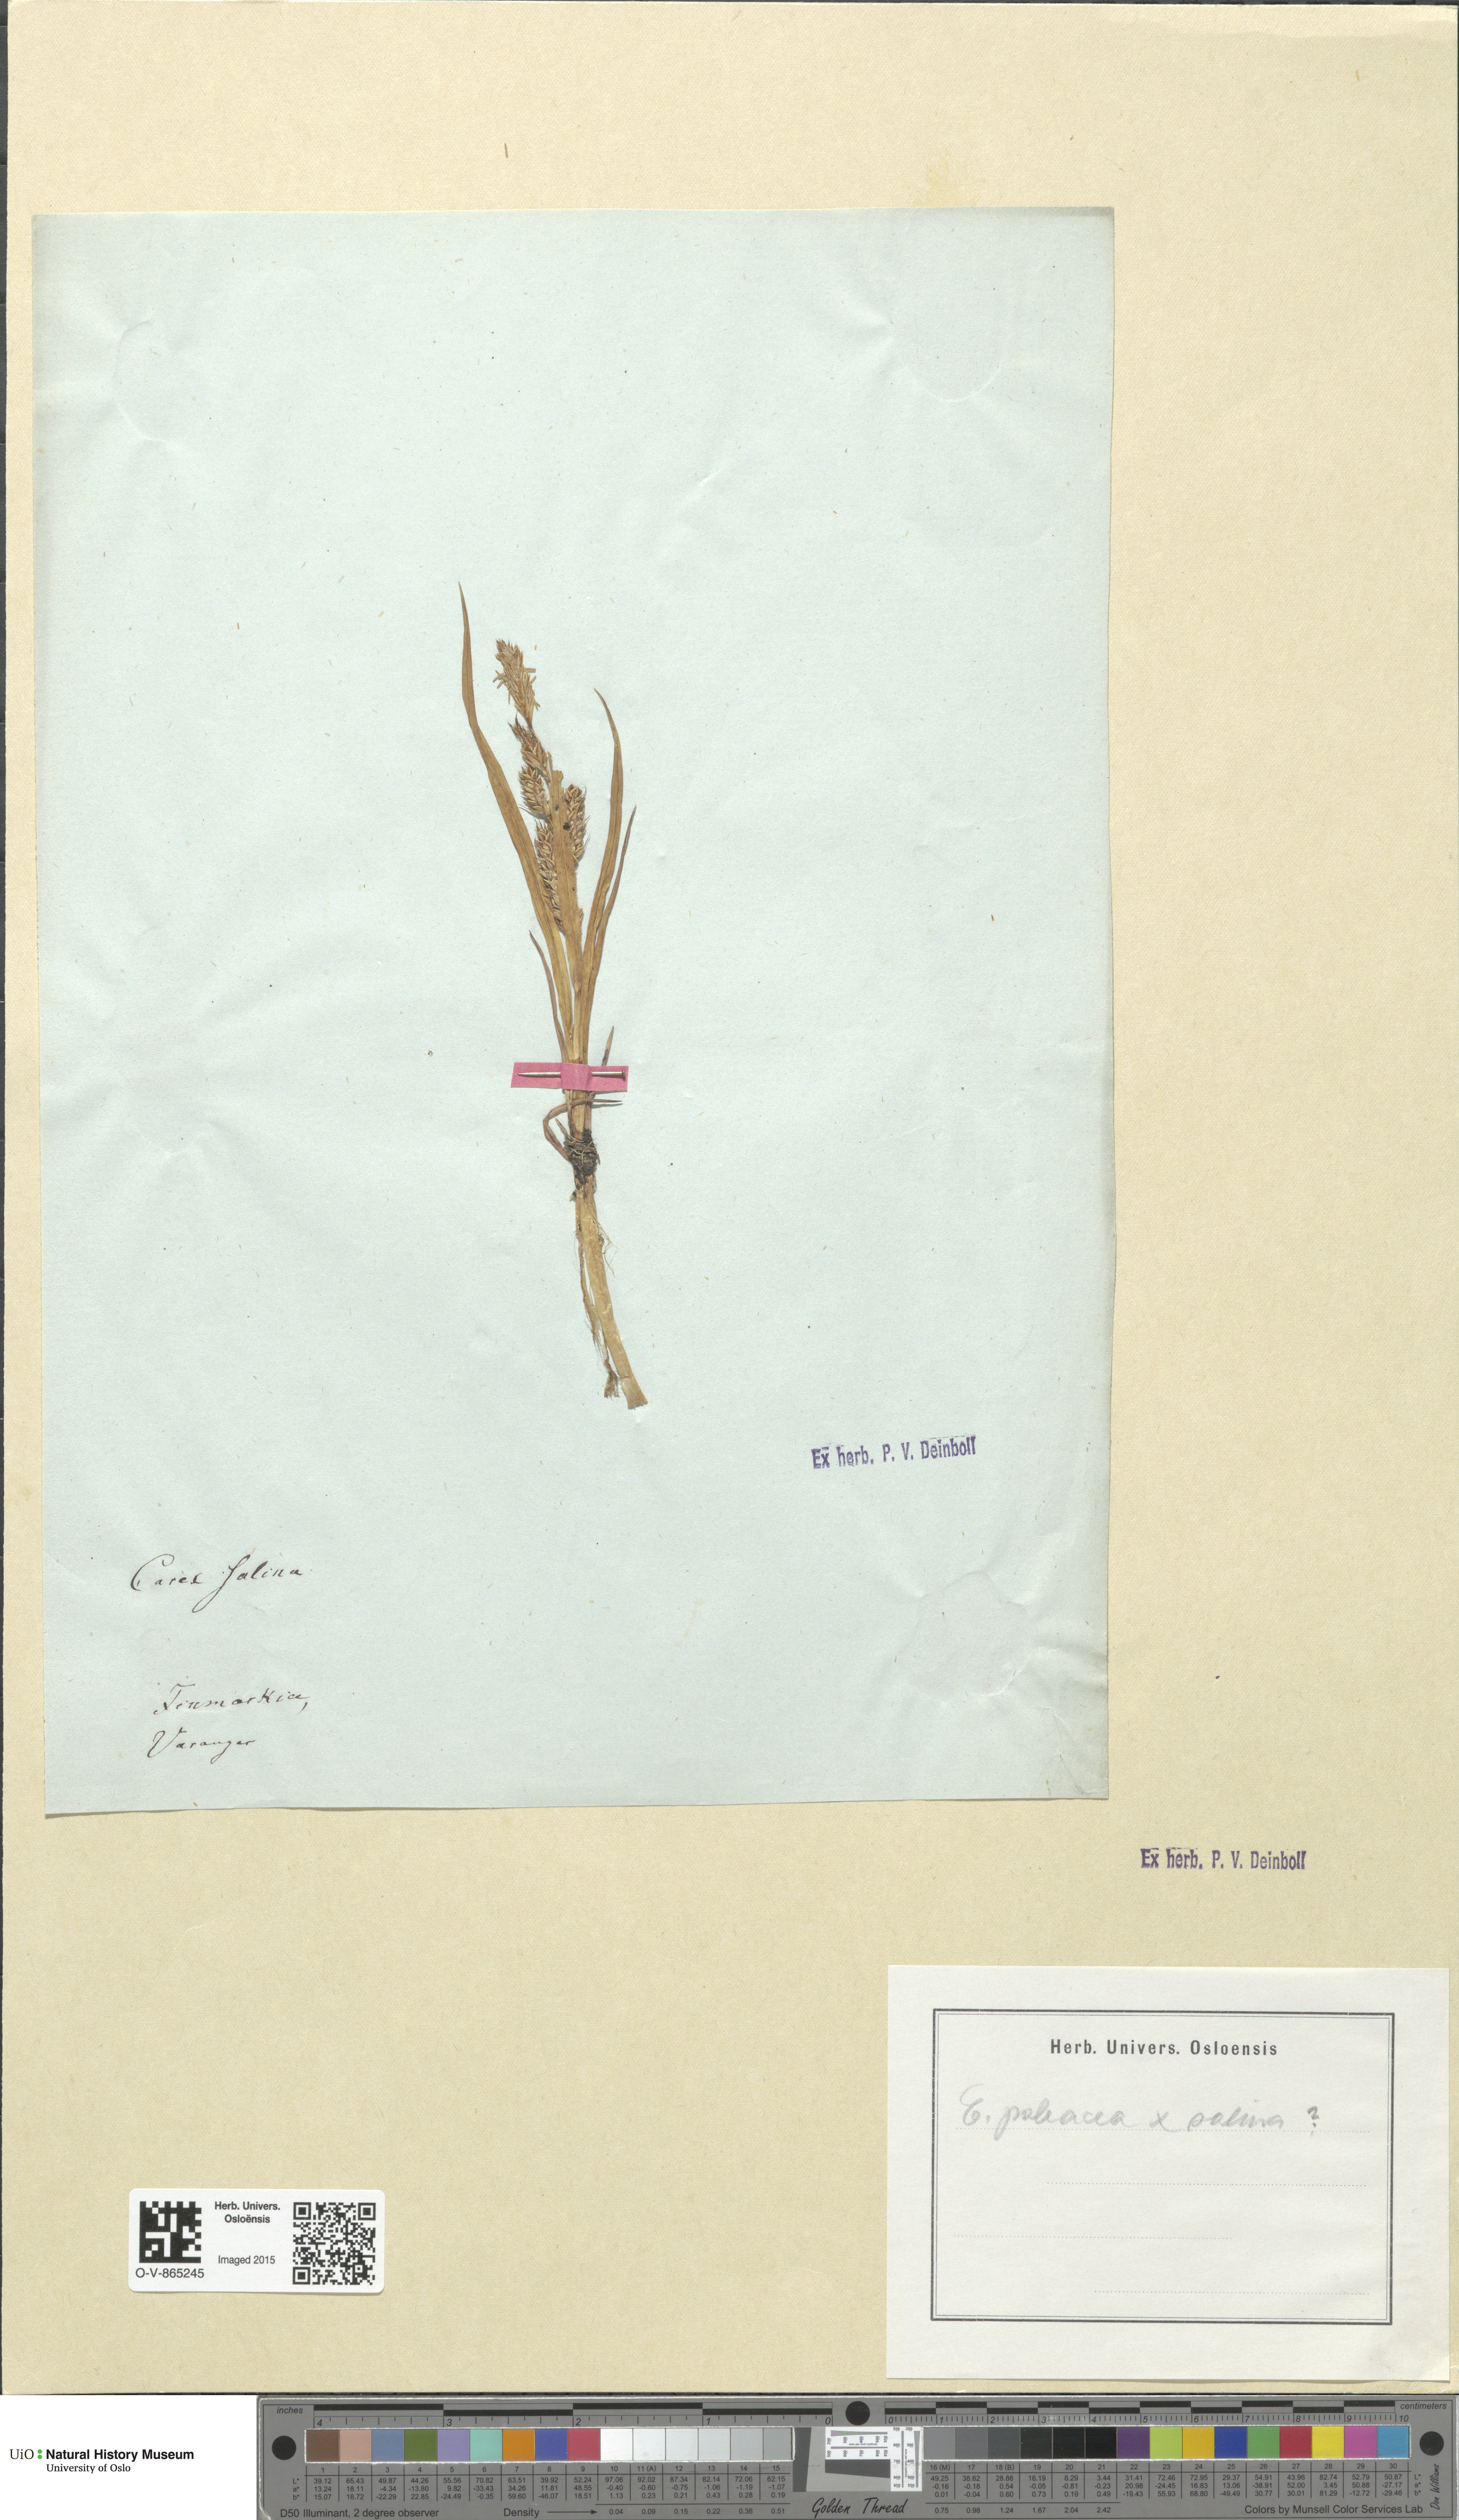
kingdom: Plantae
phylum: Tracheophyta
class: Liliopsida
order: Poales
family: Cyperaceae
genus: Carex
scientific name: Carex
